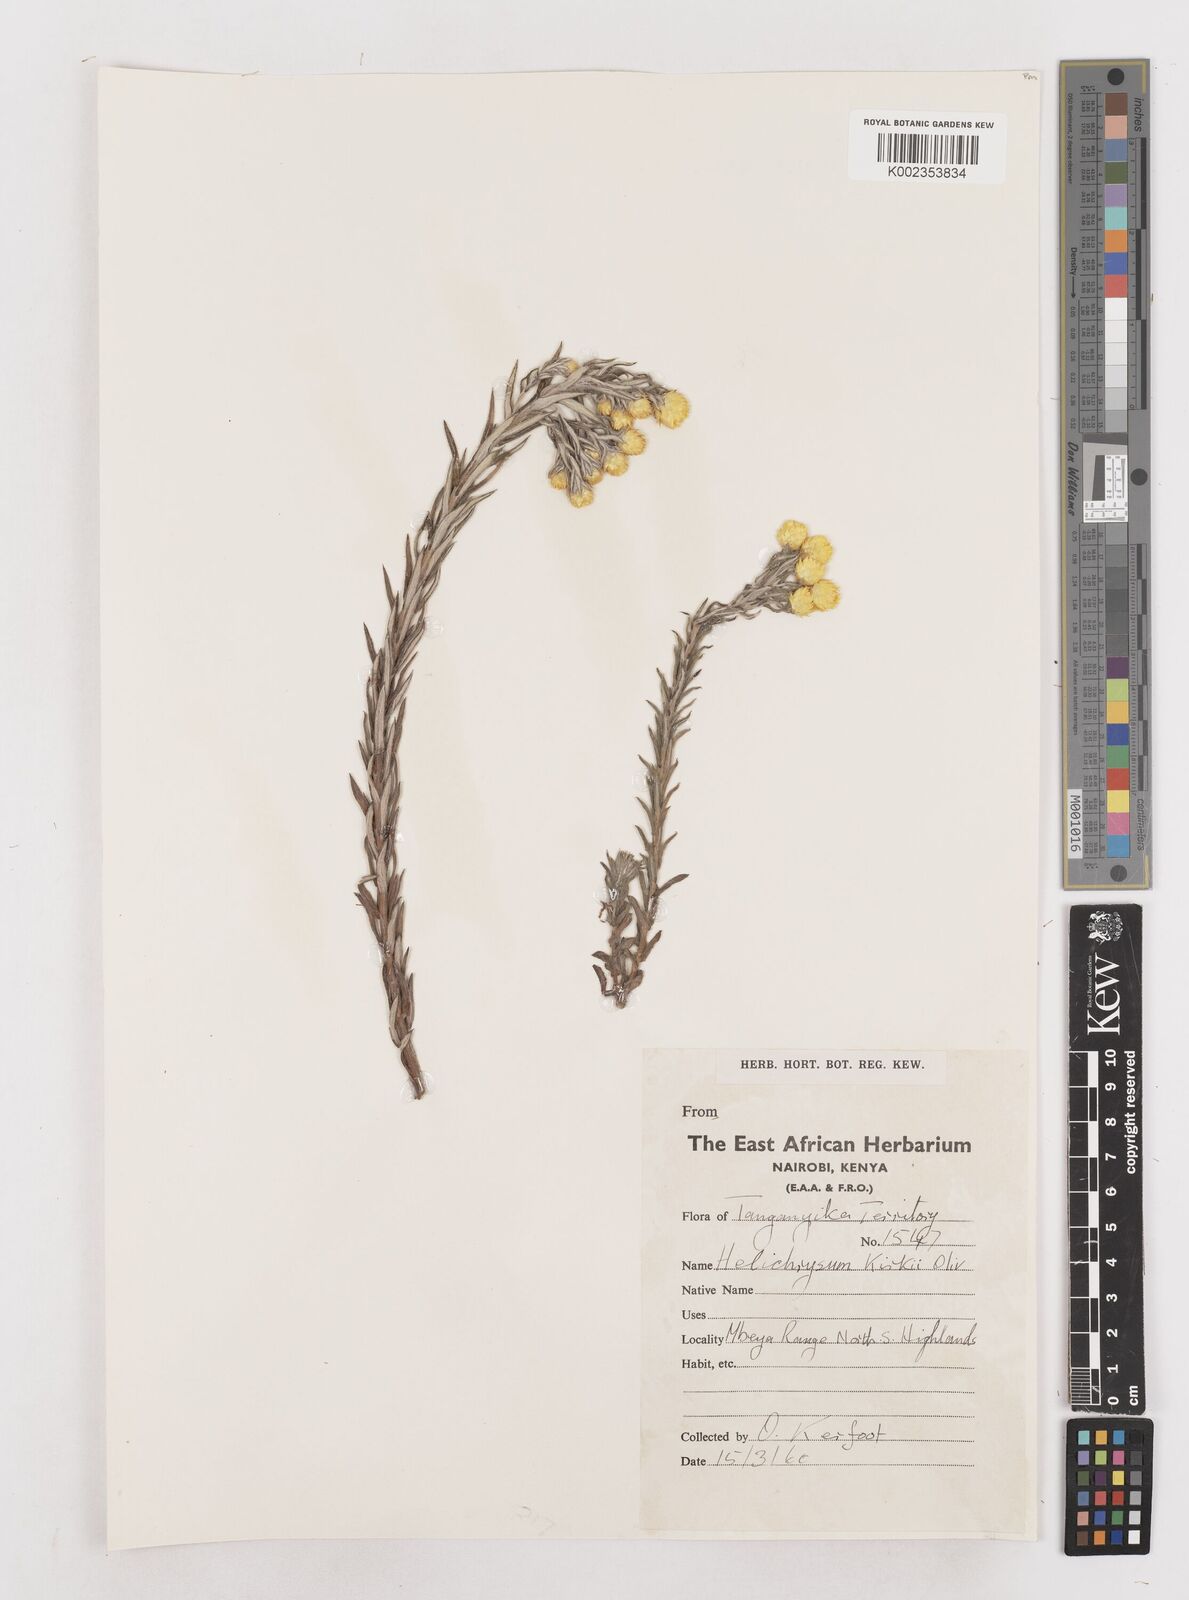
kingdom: Plantae
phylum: Tracheophyta
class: Magnoliopsida
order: Asterales
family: Asteraceae
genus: Helichrysum
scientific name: Helichrysum kirkii
